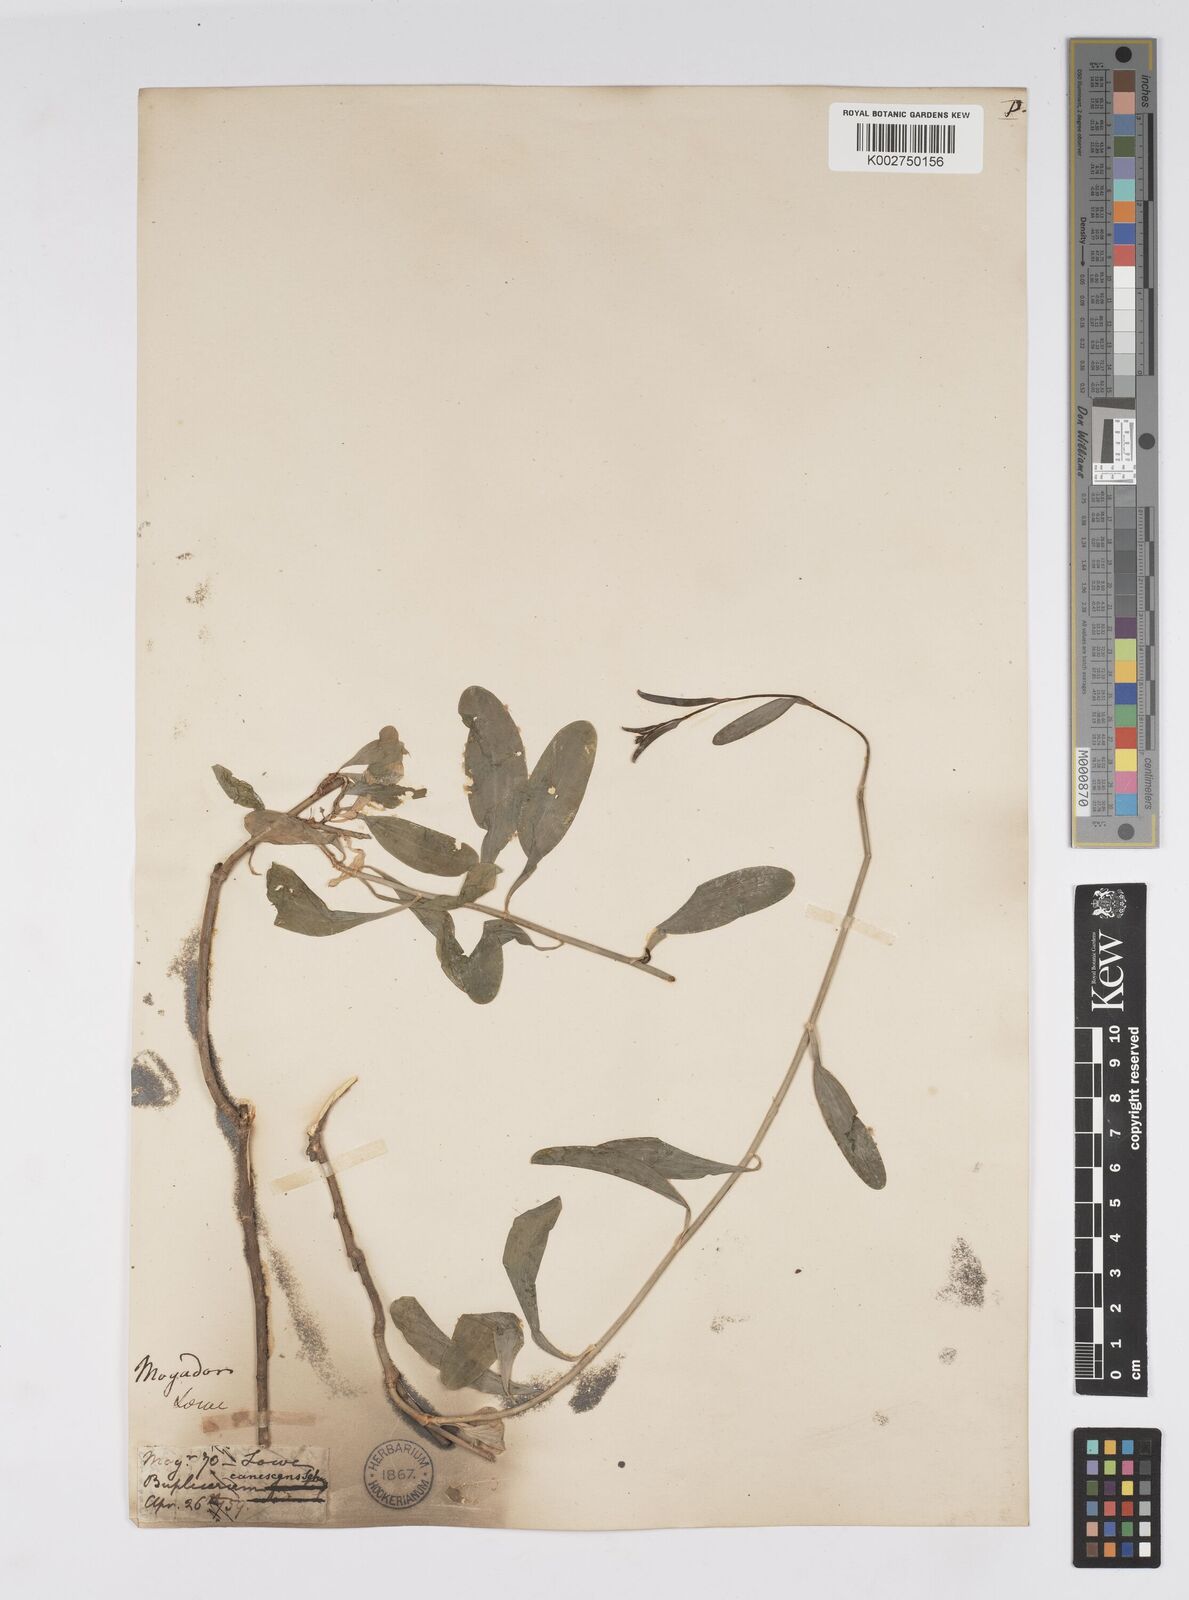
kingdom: Plantae
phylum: Tracheophyta
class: Magnoliopsida
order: Apiales
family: Apiaceae
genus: Bupleurum
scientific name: Bupleurum canescens
